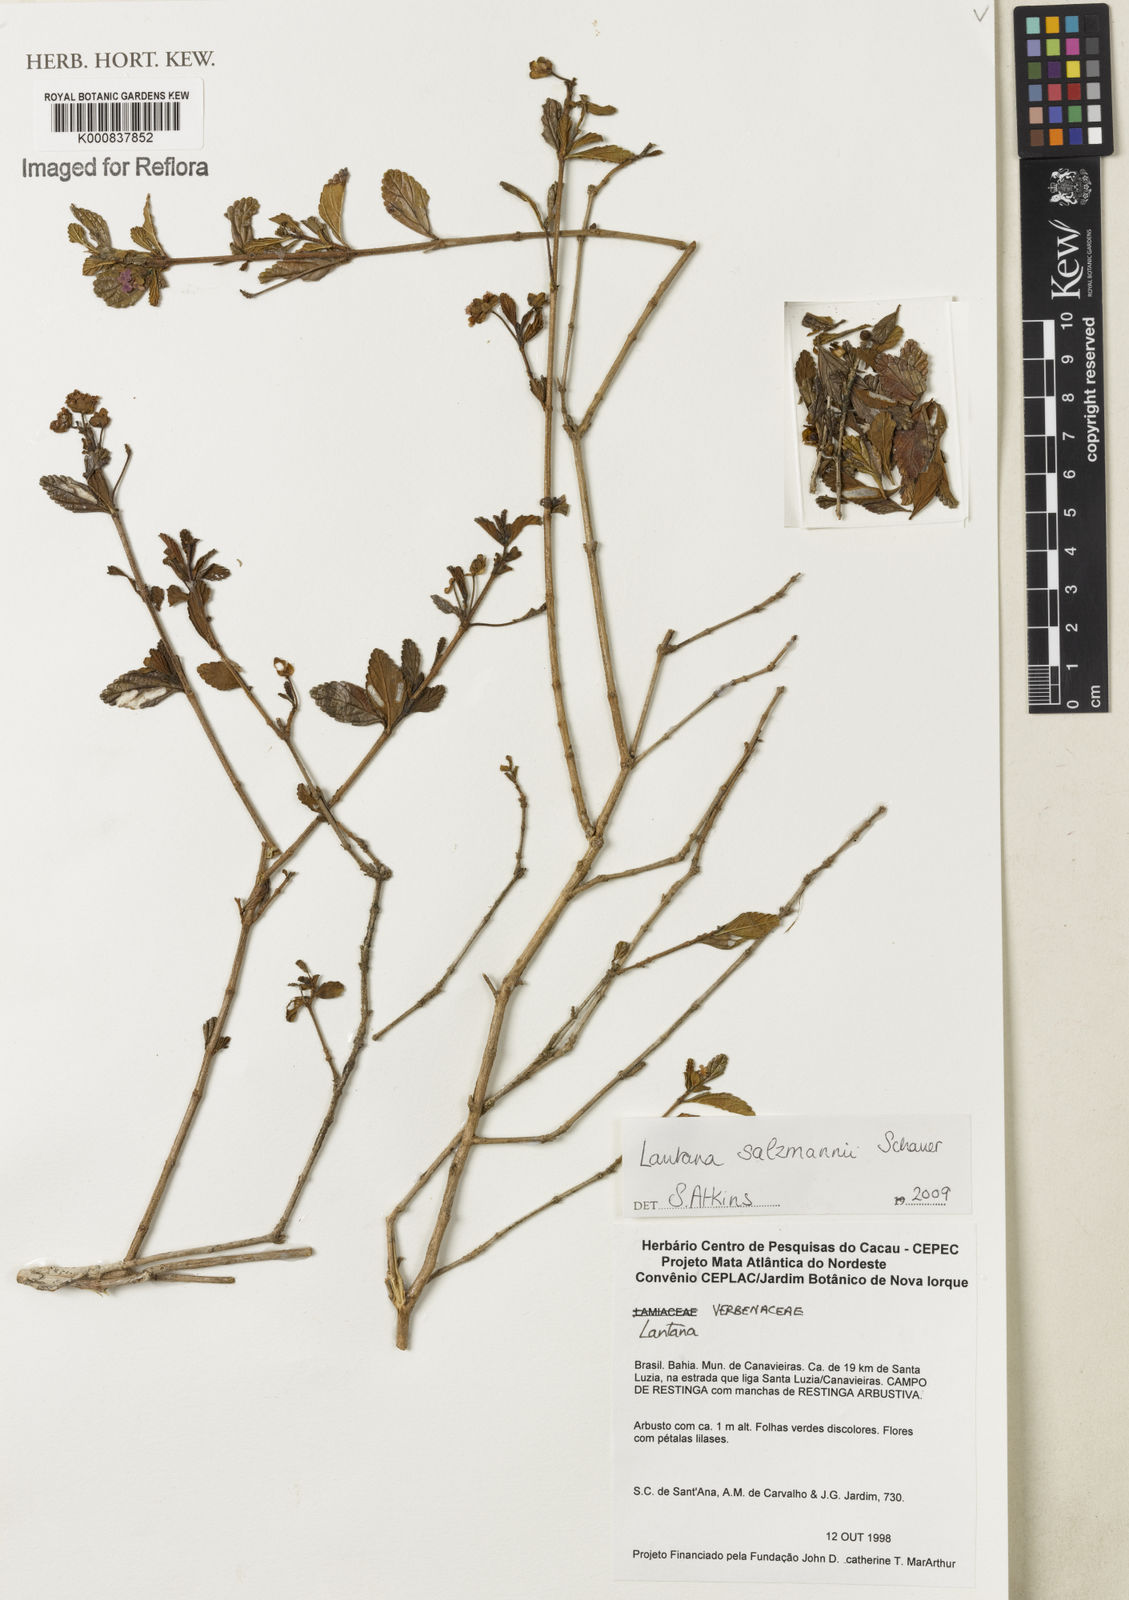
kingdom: Plantae
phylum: Tracheophyta
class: Magnoliopsida
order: Lamiales
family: Verbenaceae
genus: Lantana
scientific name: Lantana salzmannii
